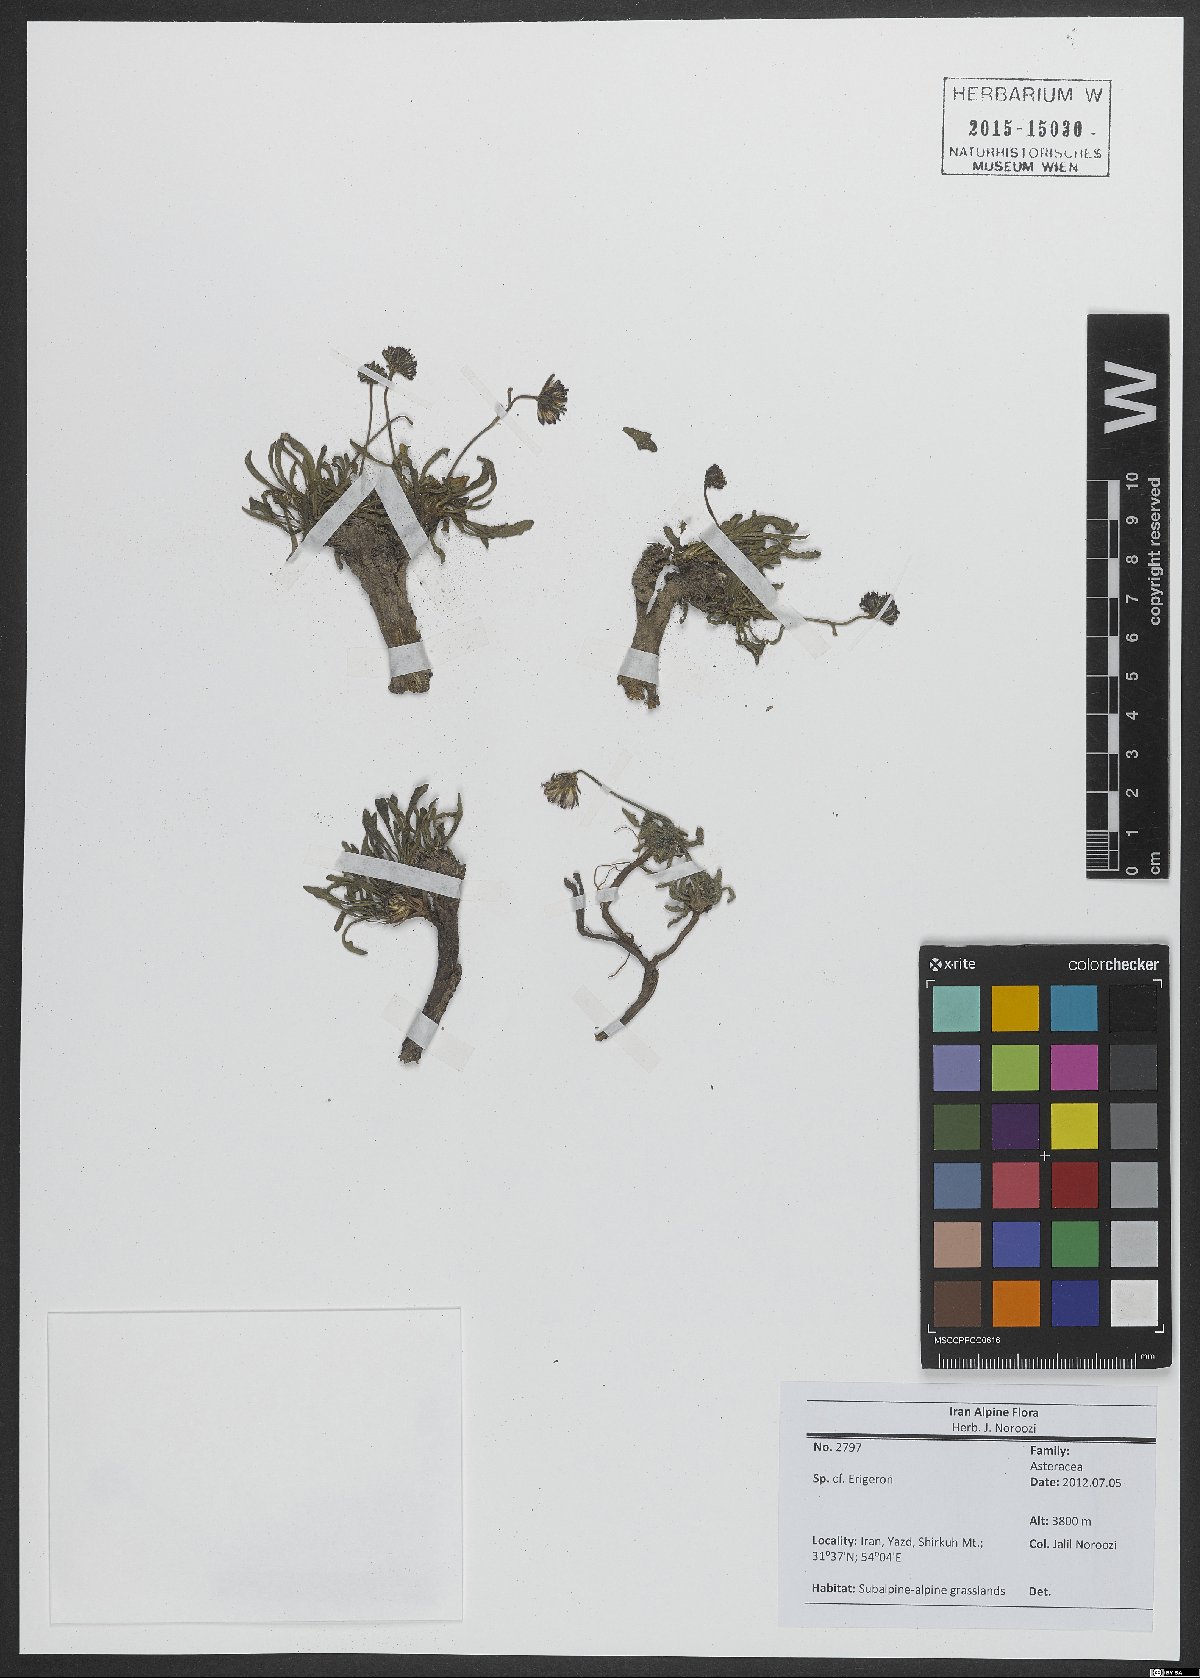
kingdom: Plantae
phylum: Tracheophyta
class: Magnoliopsida
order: Asterales
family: Asteraceae
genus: Erigeron
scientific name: Erigeron
